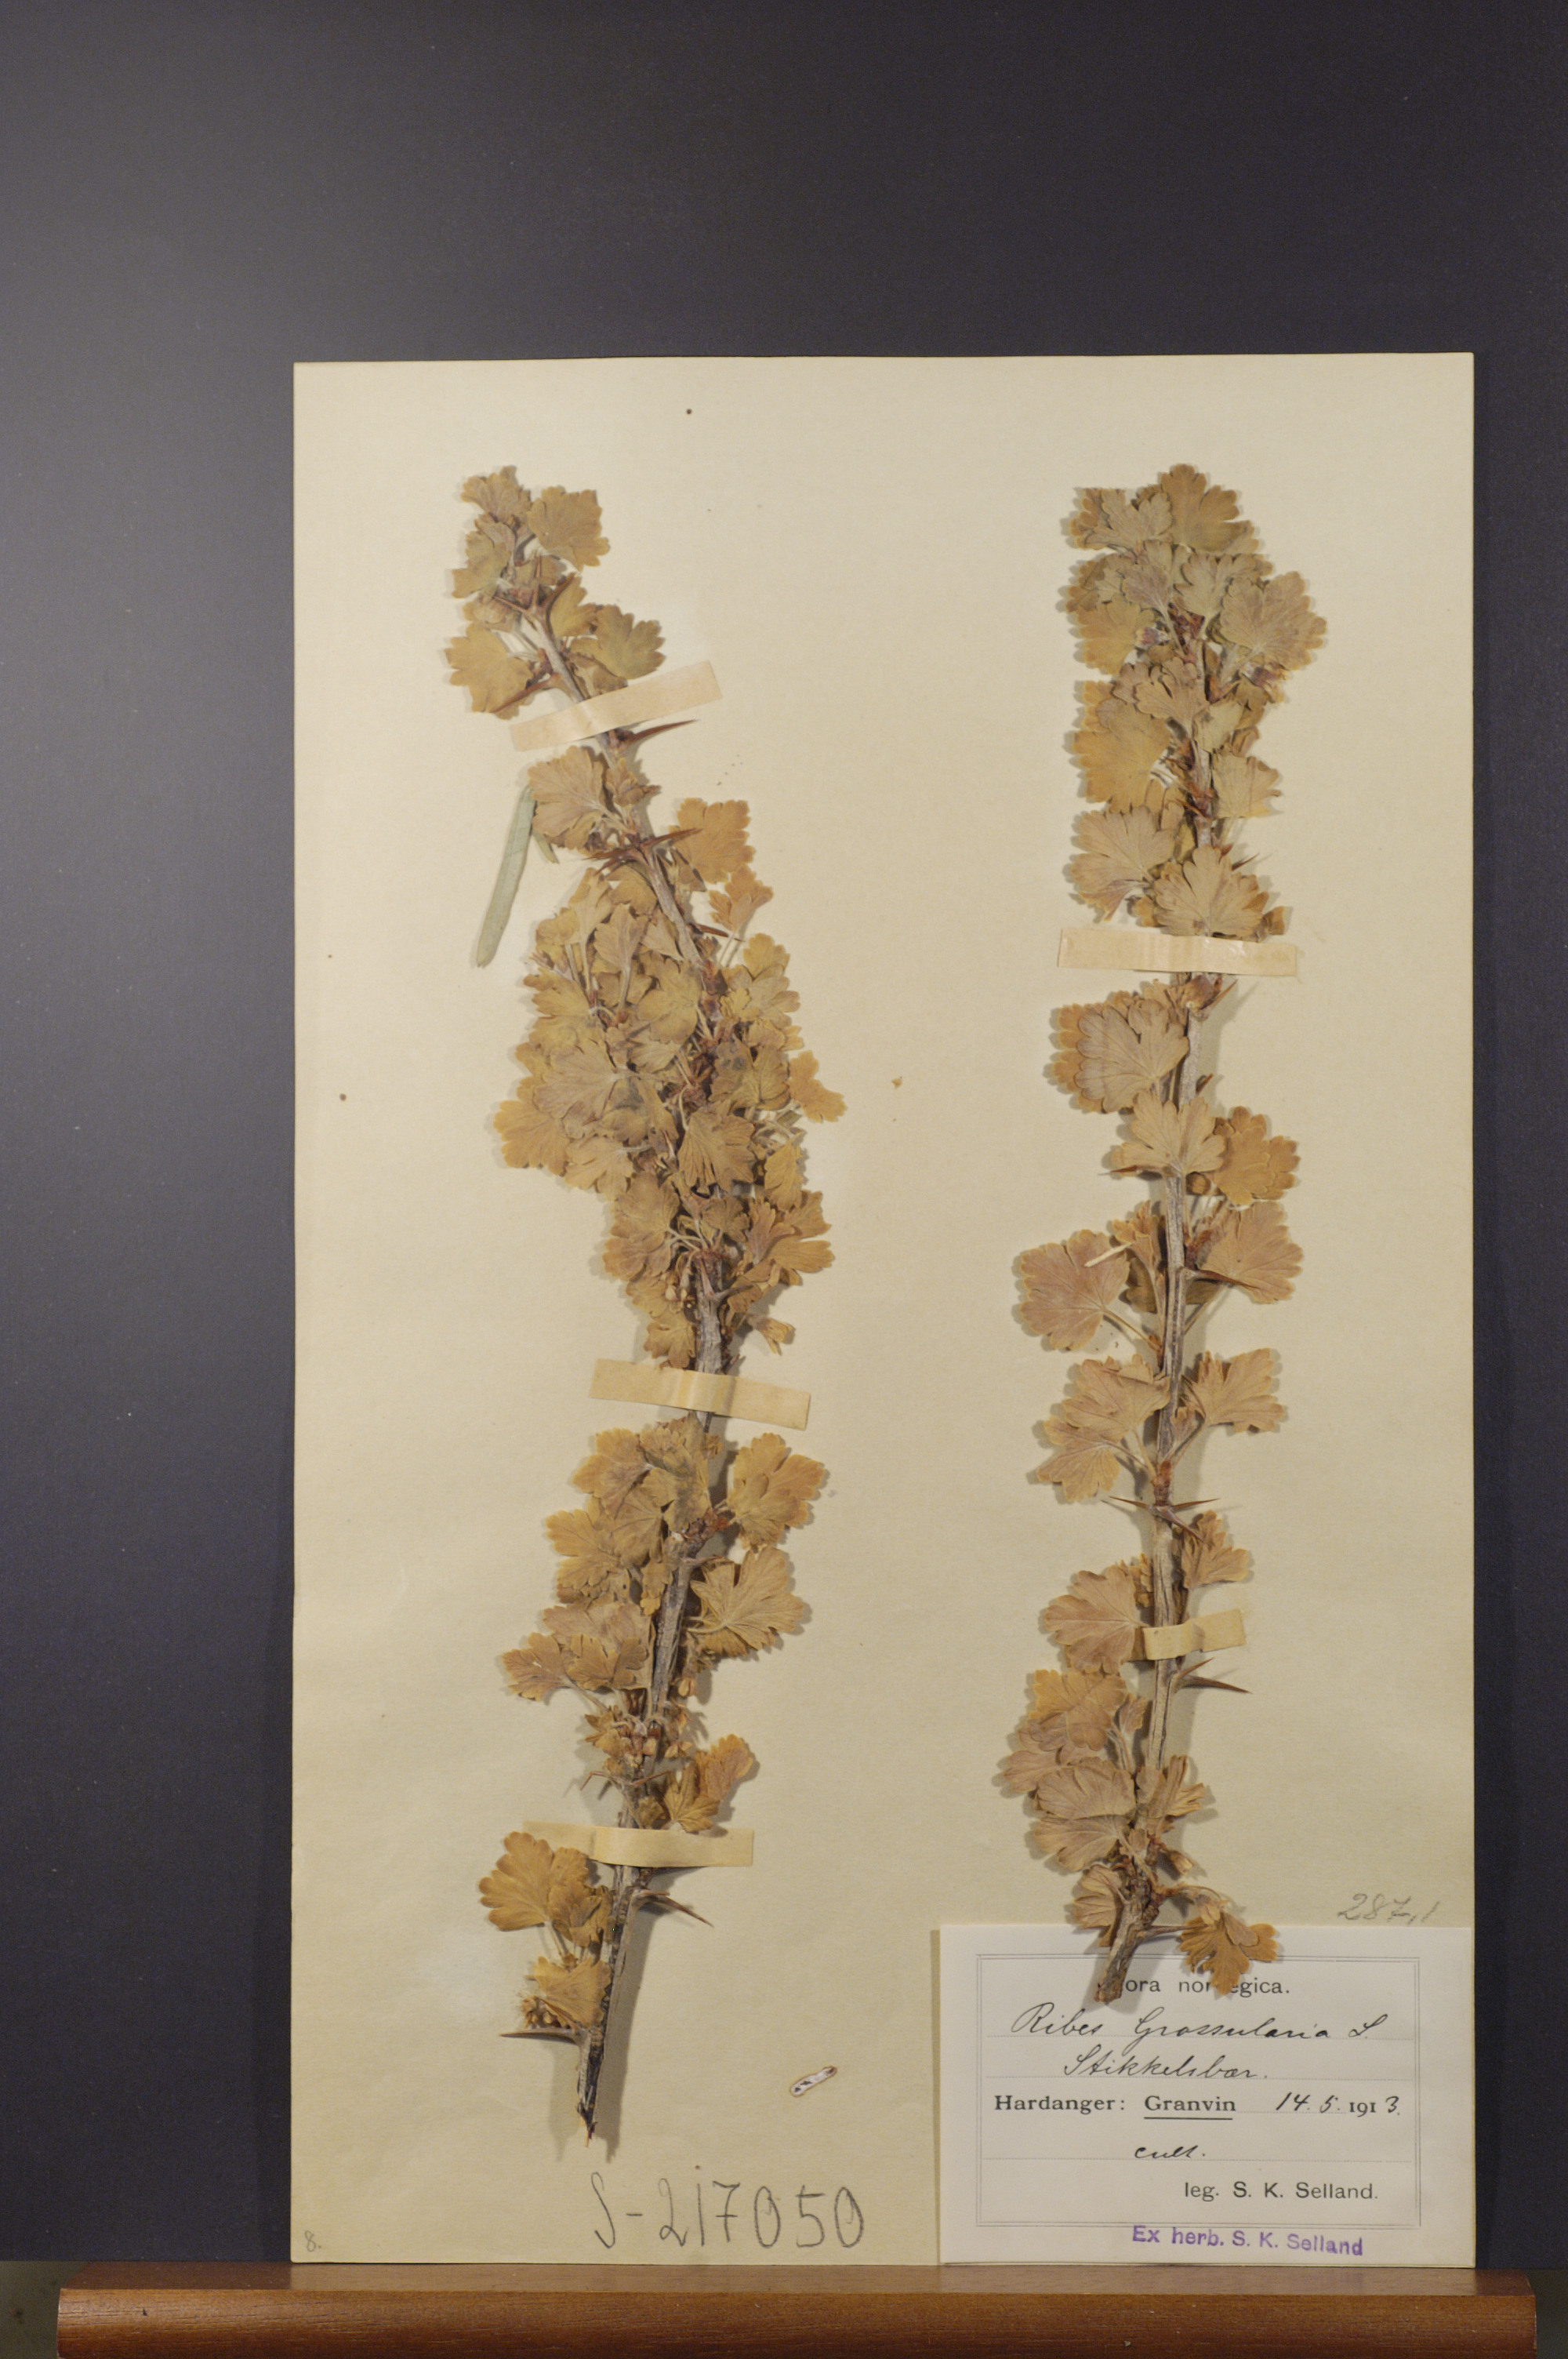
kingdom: Plantae
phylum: Tracheophyta
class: Magnoliopsida
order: Saxifragales
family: Grossulariaceae
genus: Ribes
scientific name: Ribes uva-crispa
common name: Gooseberry
